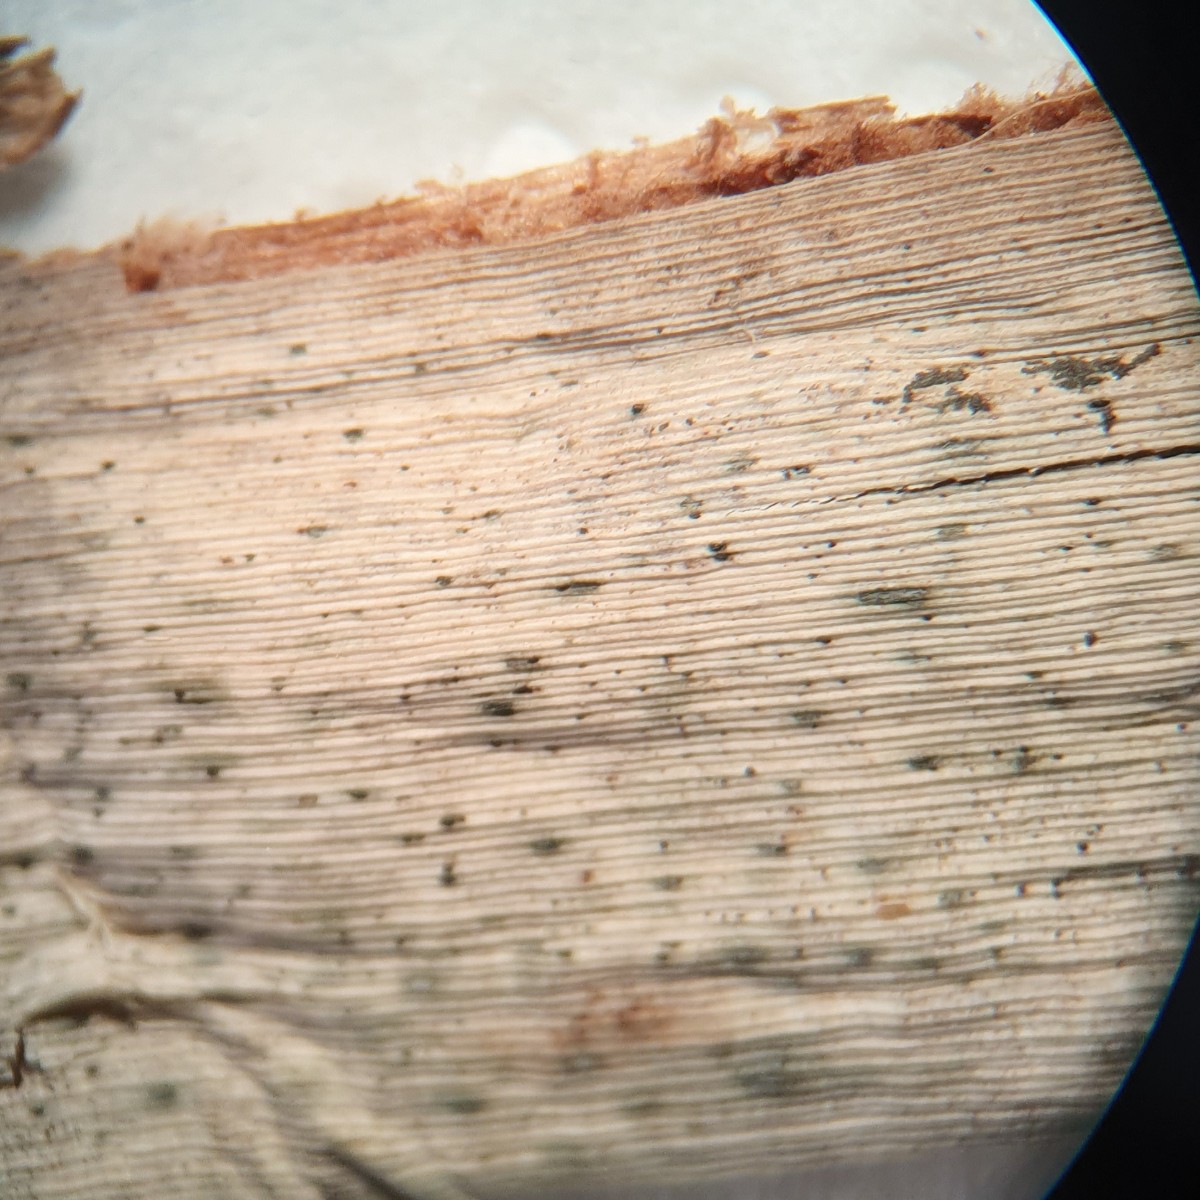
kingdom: Fungi
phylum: Ascomycota
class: Sordariomycetes
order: Hypocreales
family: Stachybotryaceae
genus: Hymenopsis
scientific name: Hymenopsis typhae
